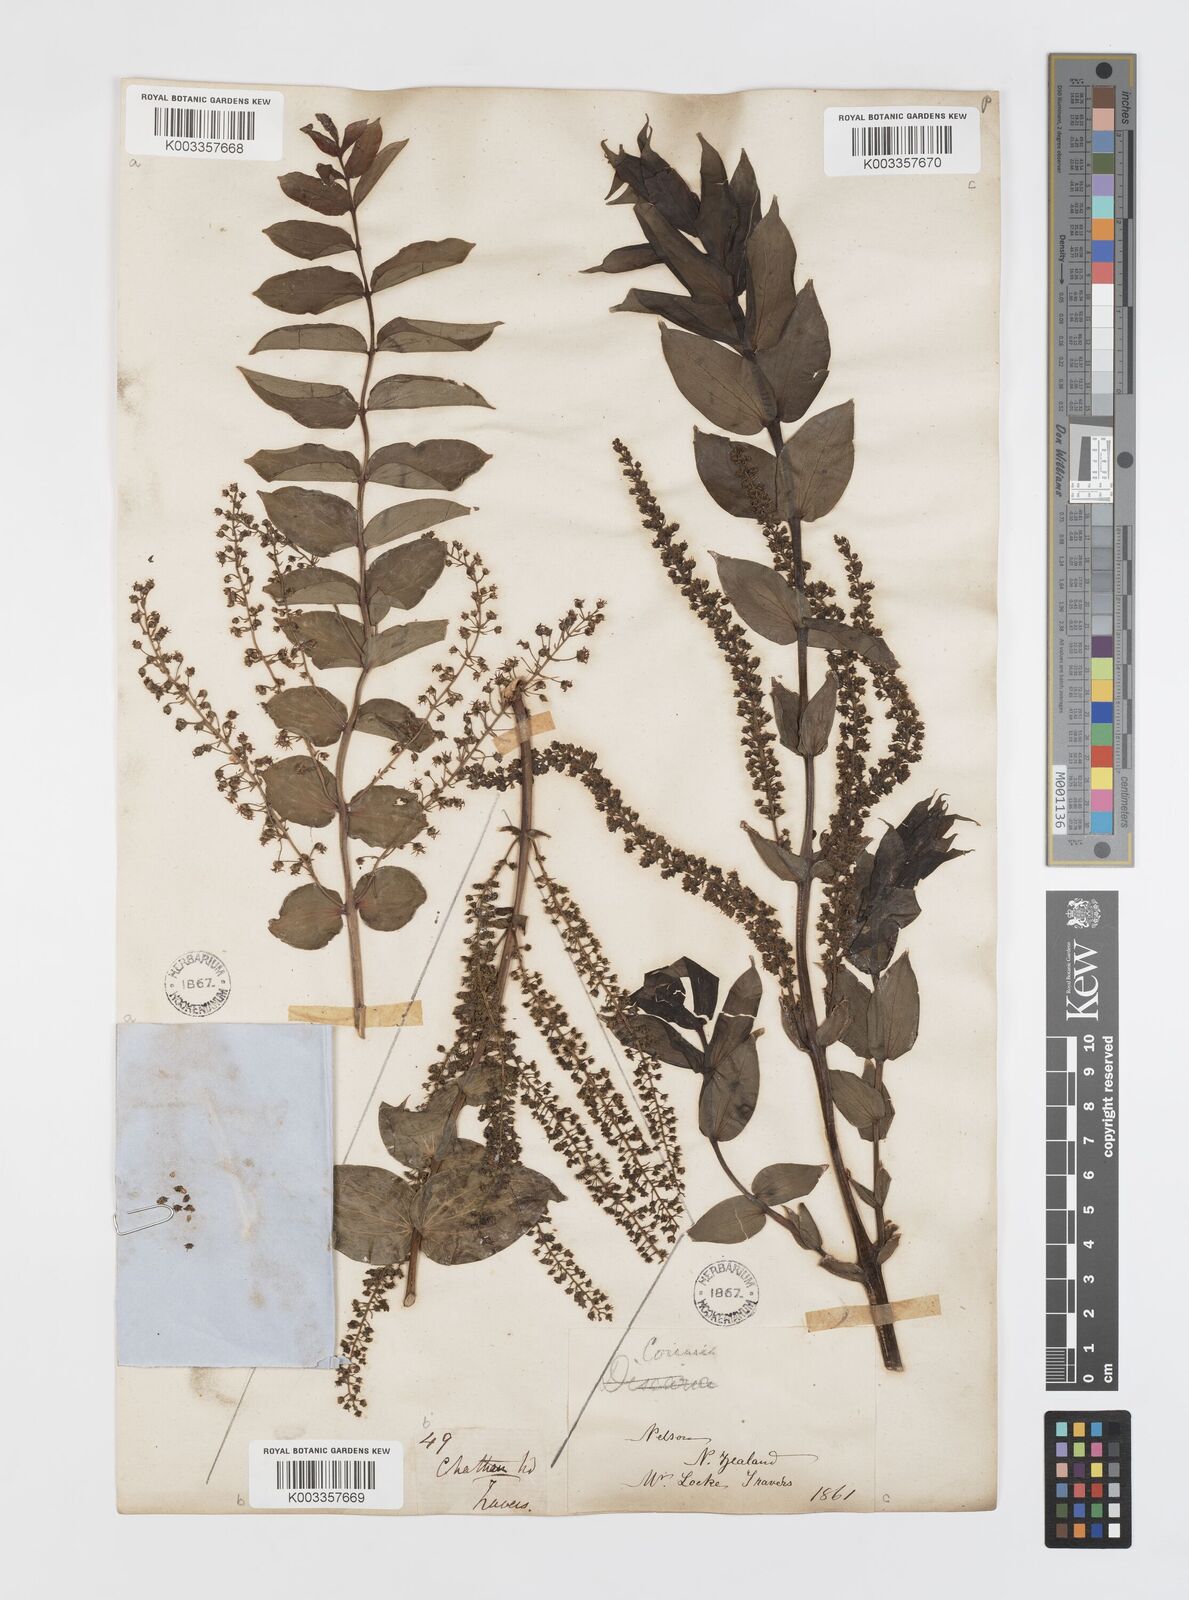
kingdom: Plantae
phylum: Tracheophyta
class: Magnoliopsida
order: Cucurbitales
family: Coriariaceae
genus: Coriaria
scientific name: Coriaria ruscifolia
